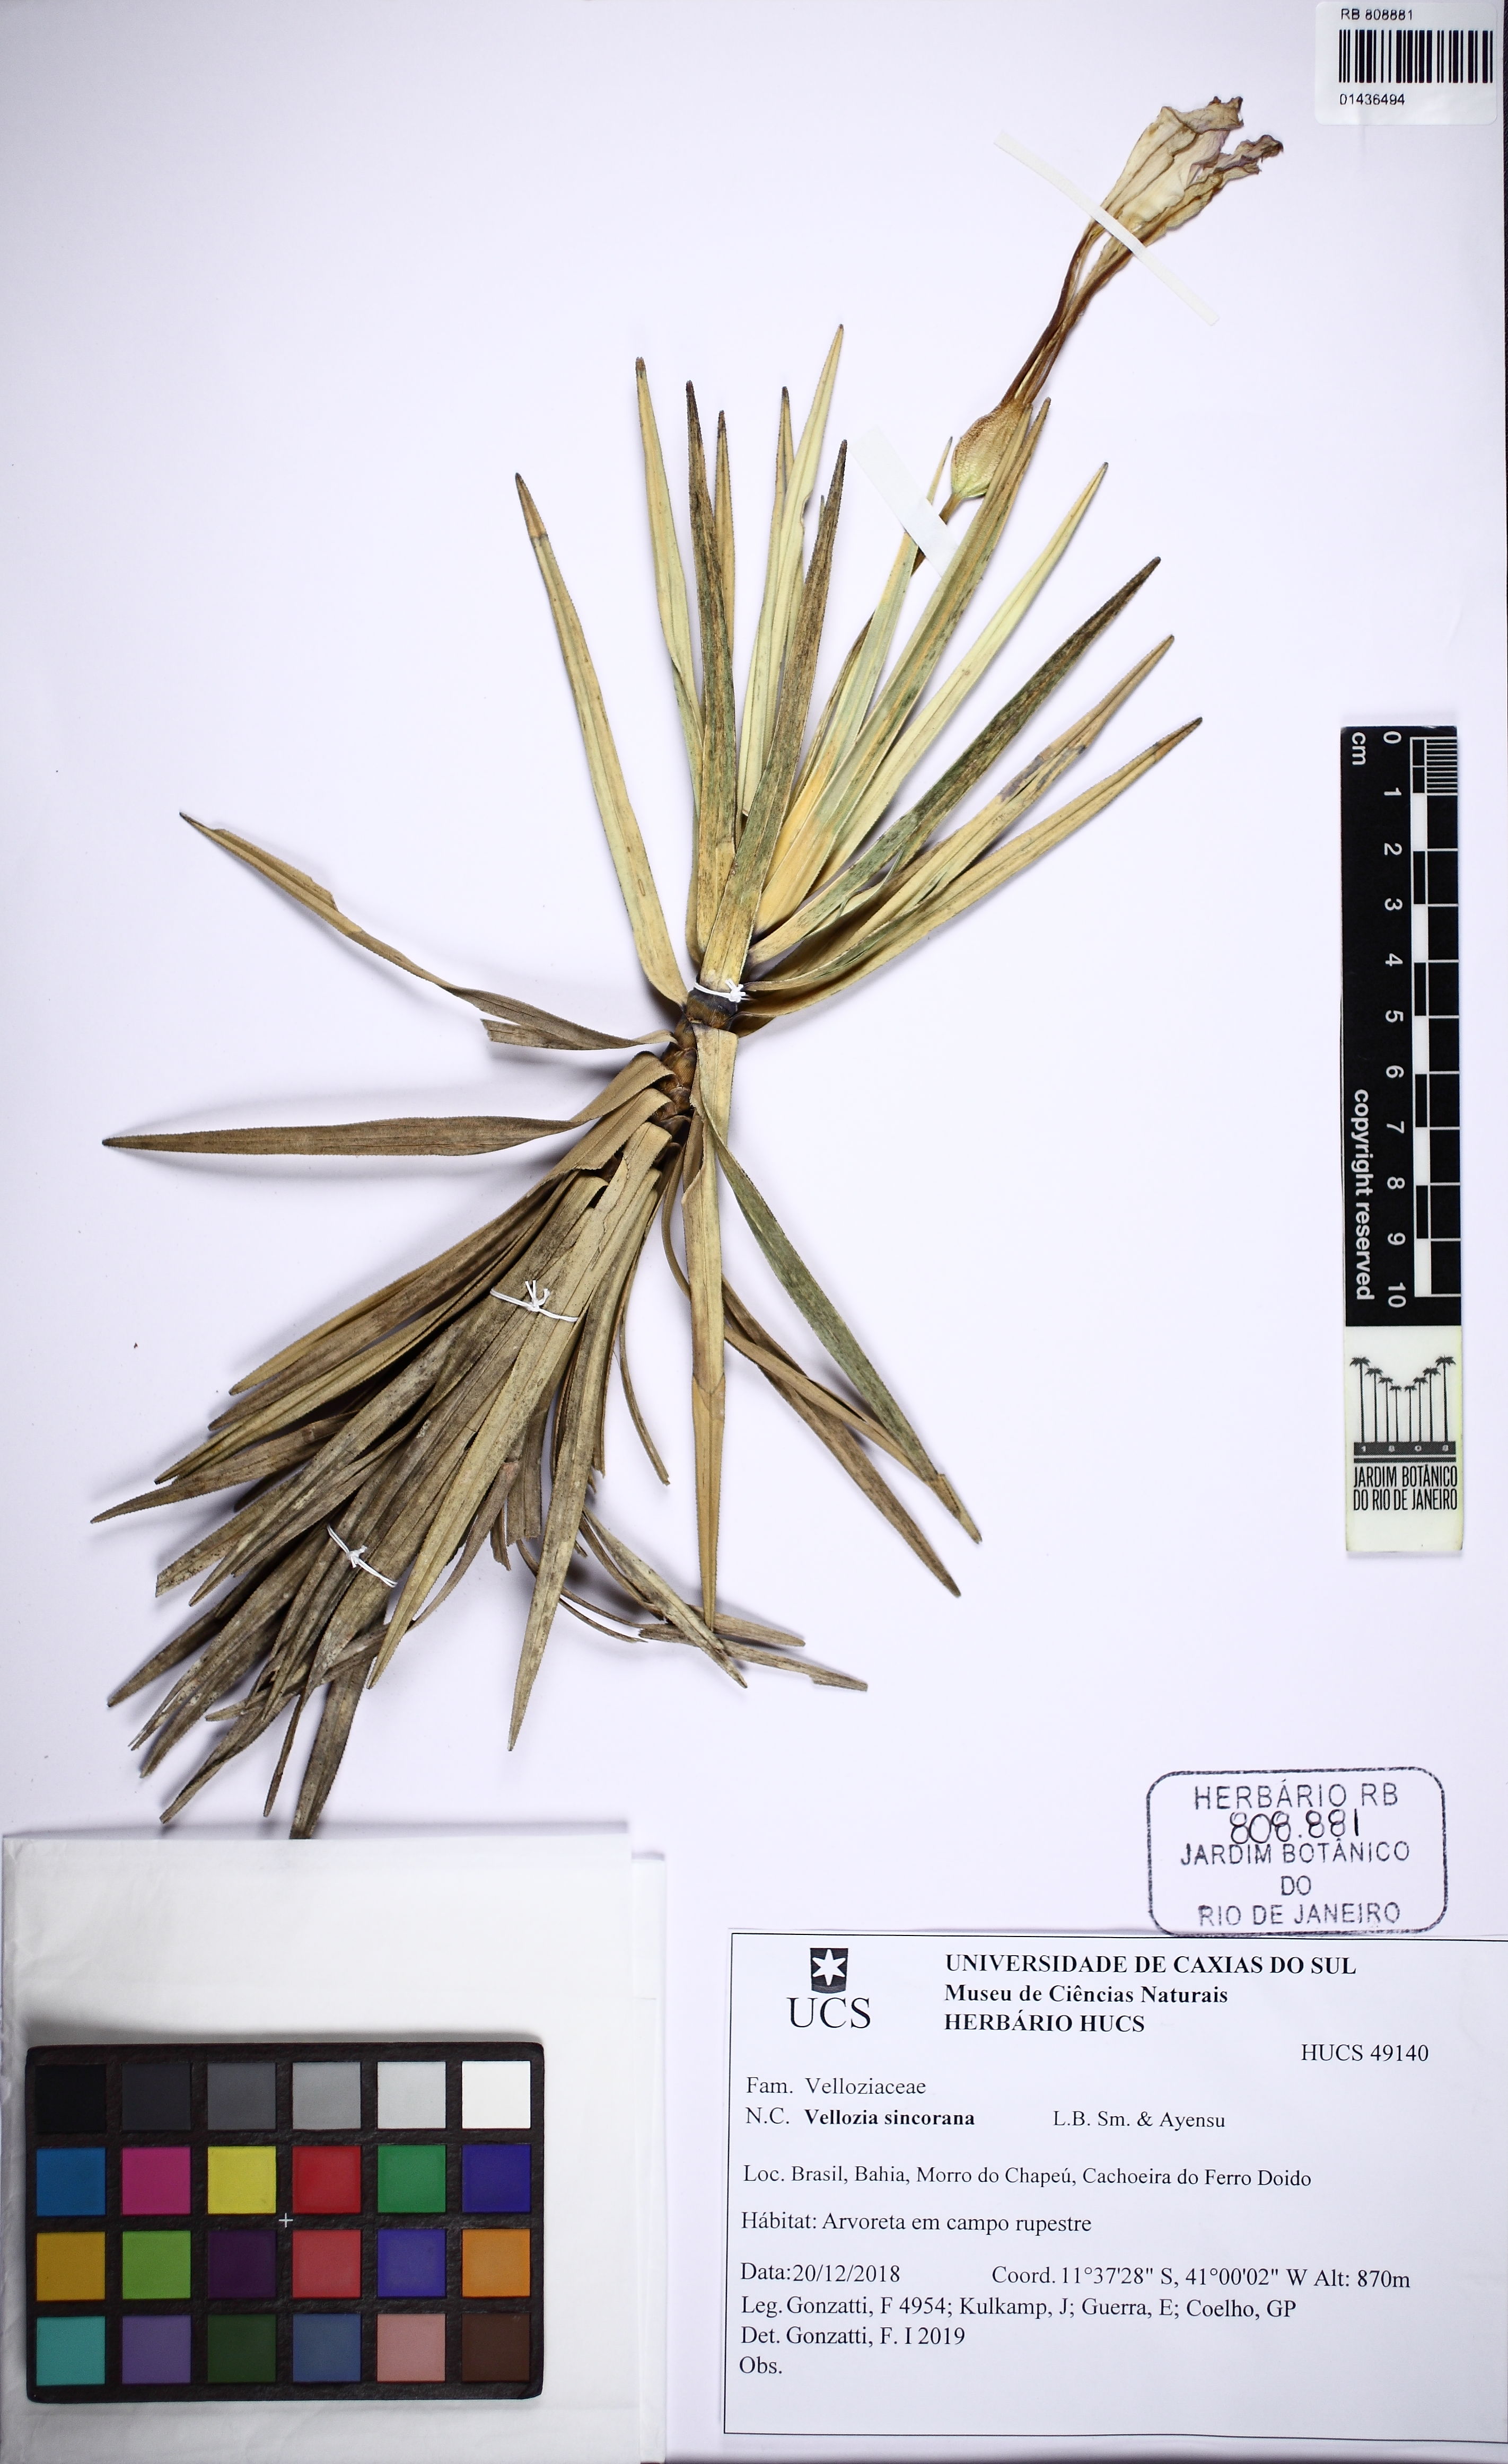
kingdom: Plantae
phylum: Tracheophyta
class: Liliopsida
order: Pandanales
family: Velloziaceae
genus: Vellozia
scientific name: Vellozia sincorana
